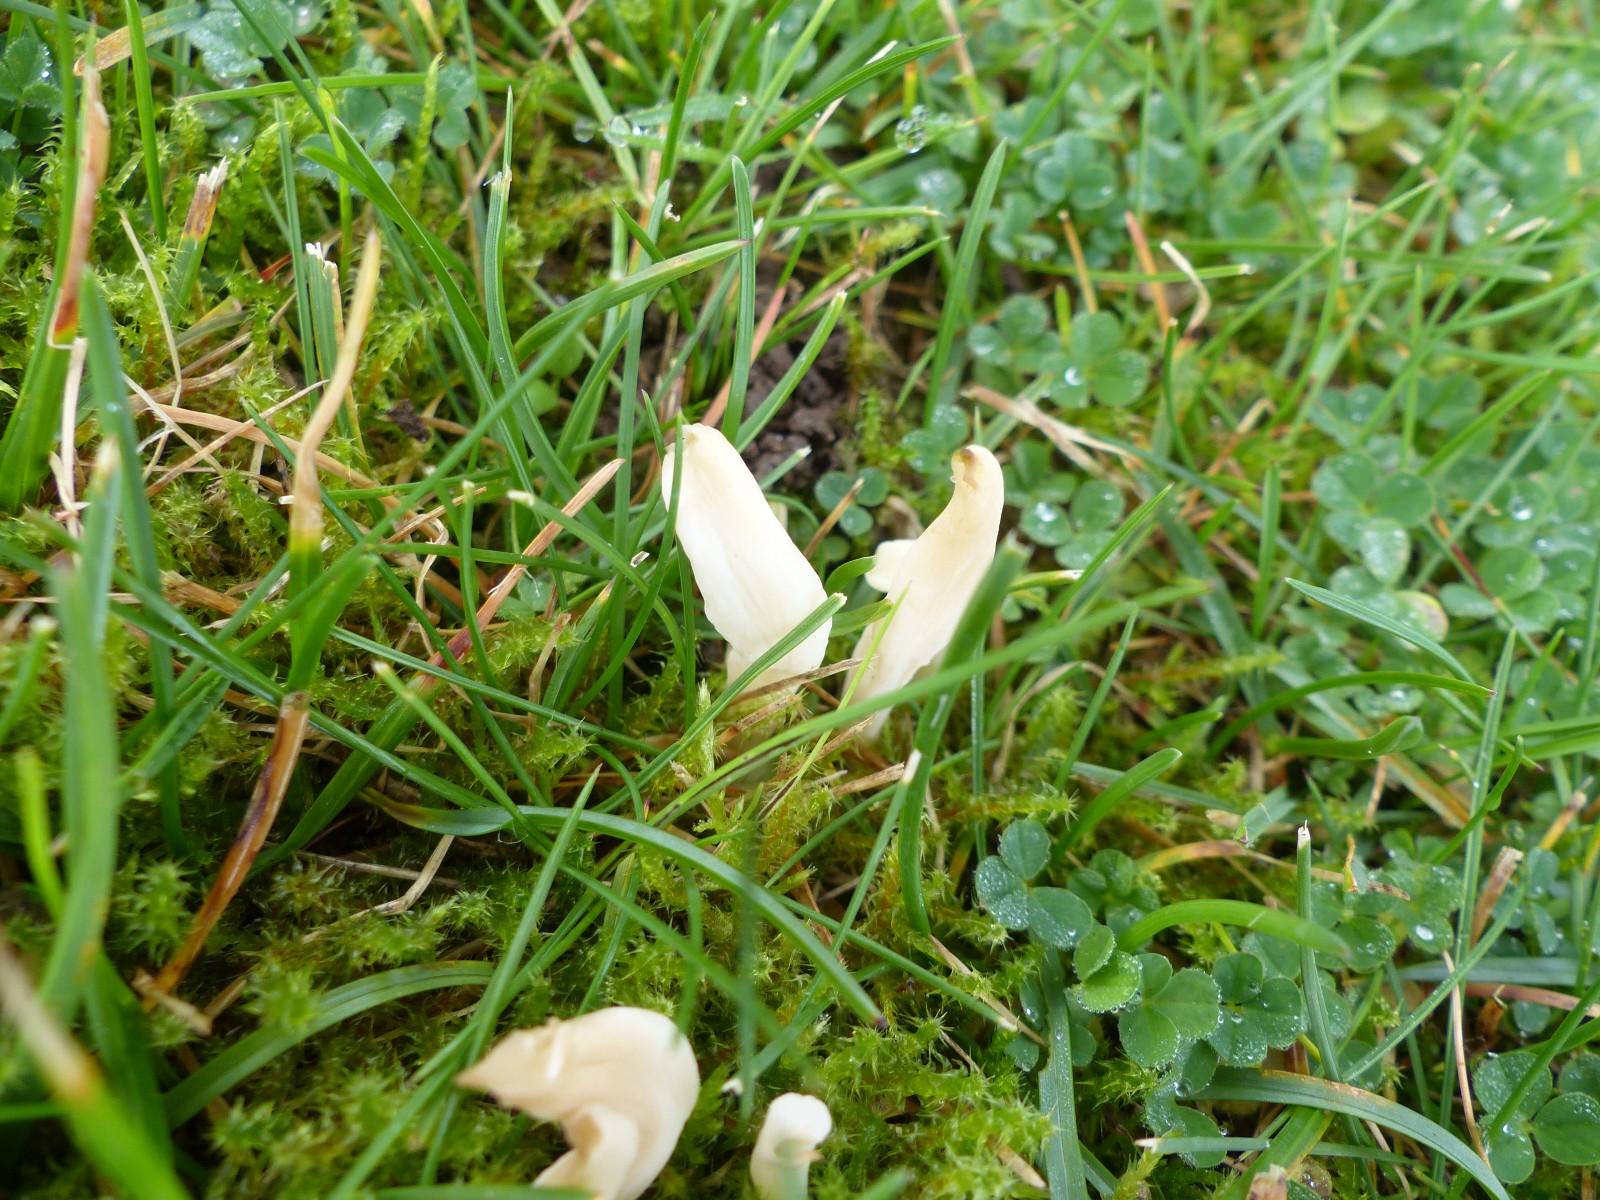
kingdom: Fungi
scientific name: Fungi
